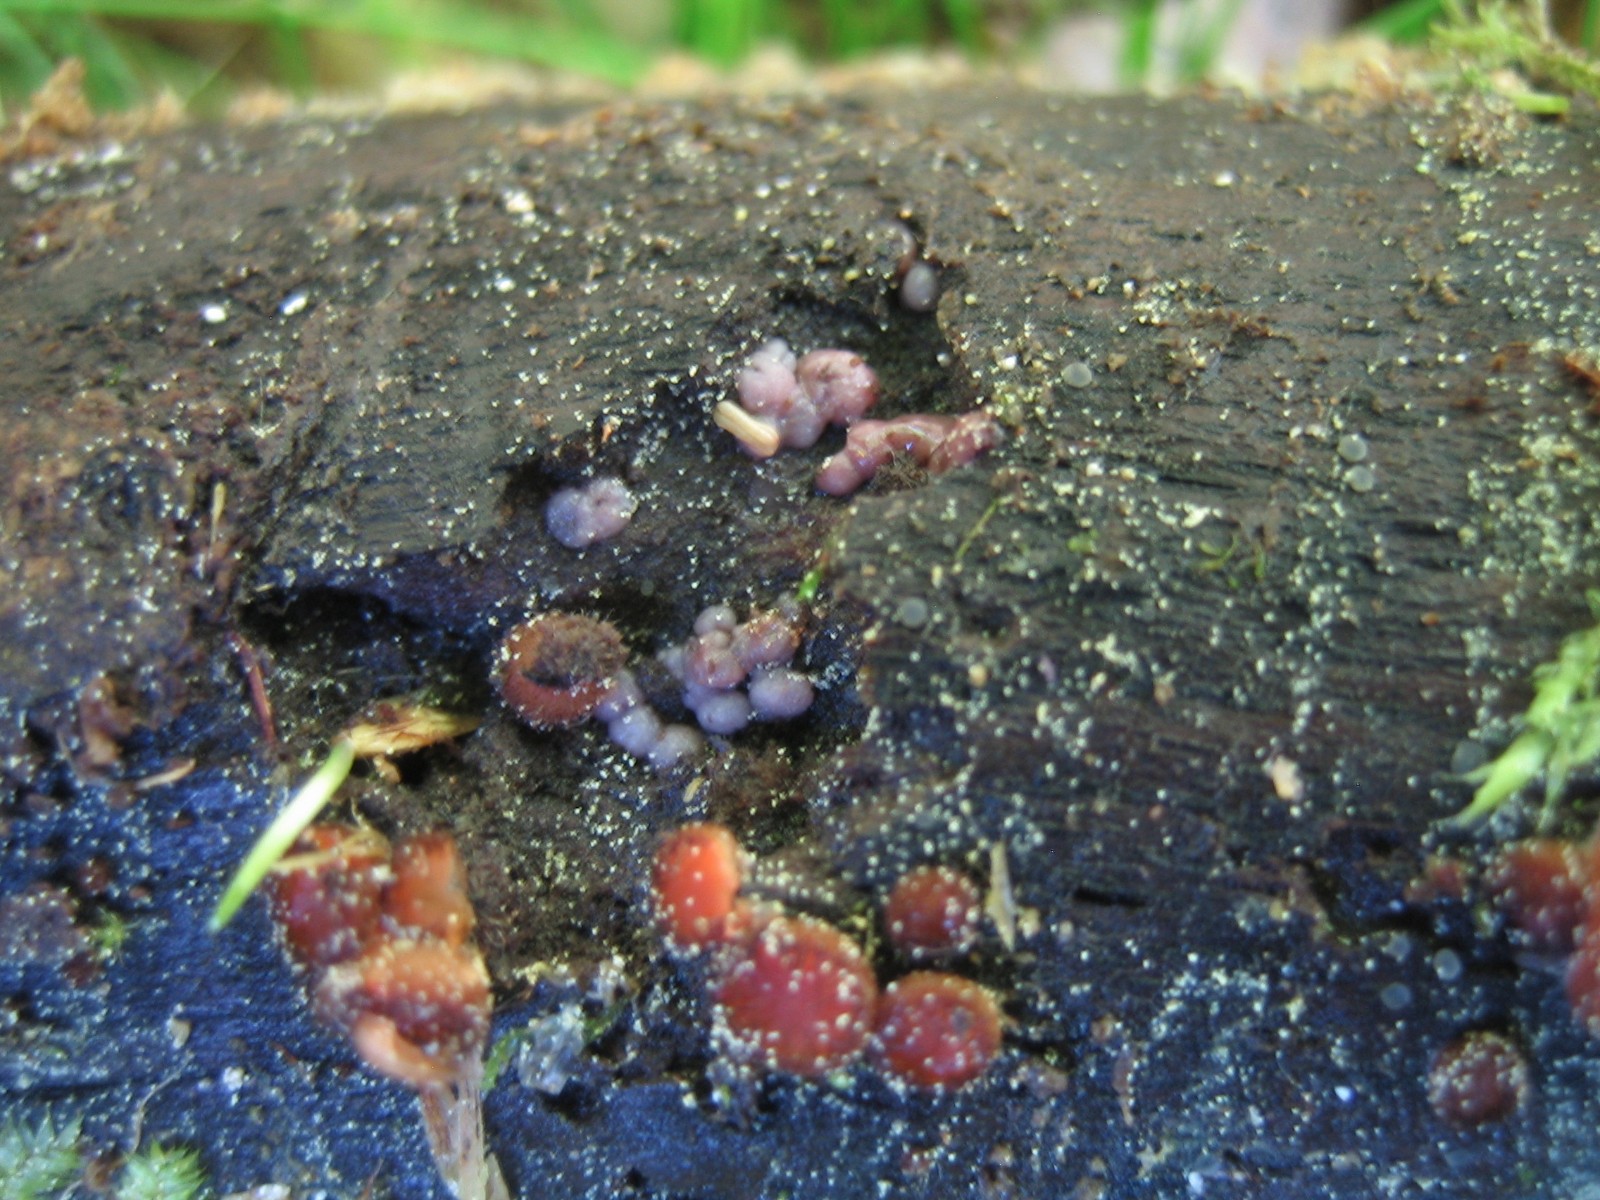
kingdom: Fungi
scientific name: Fungi
